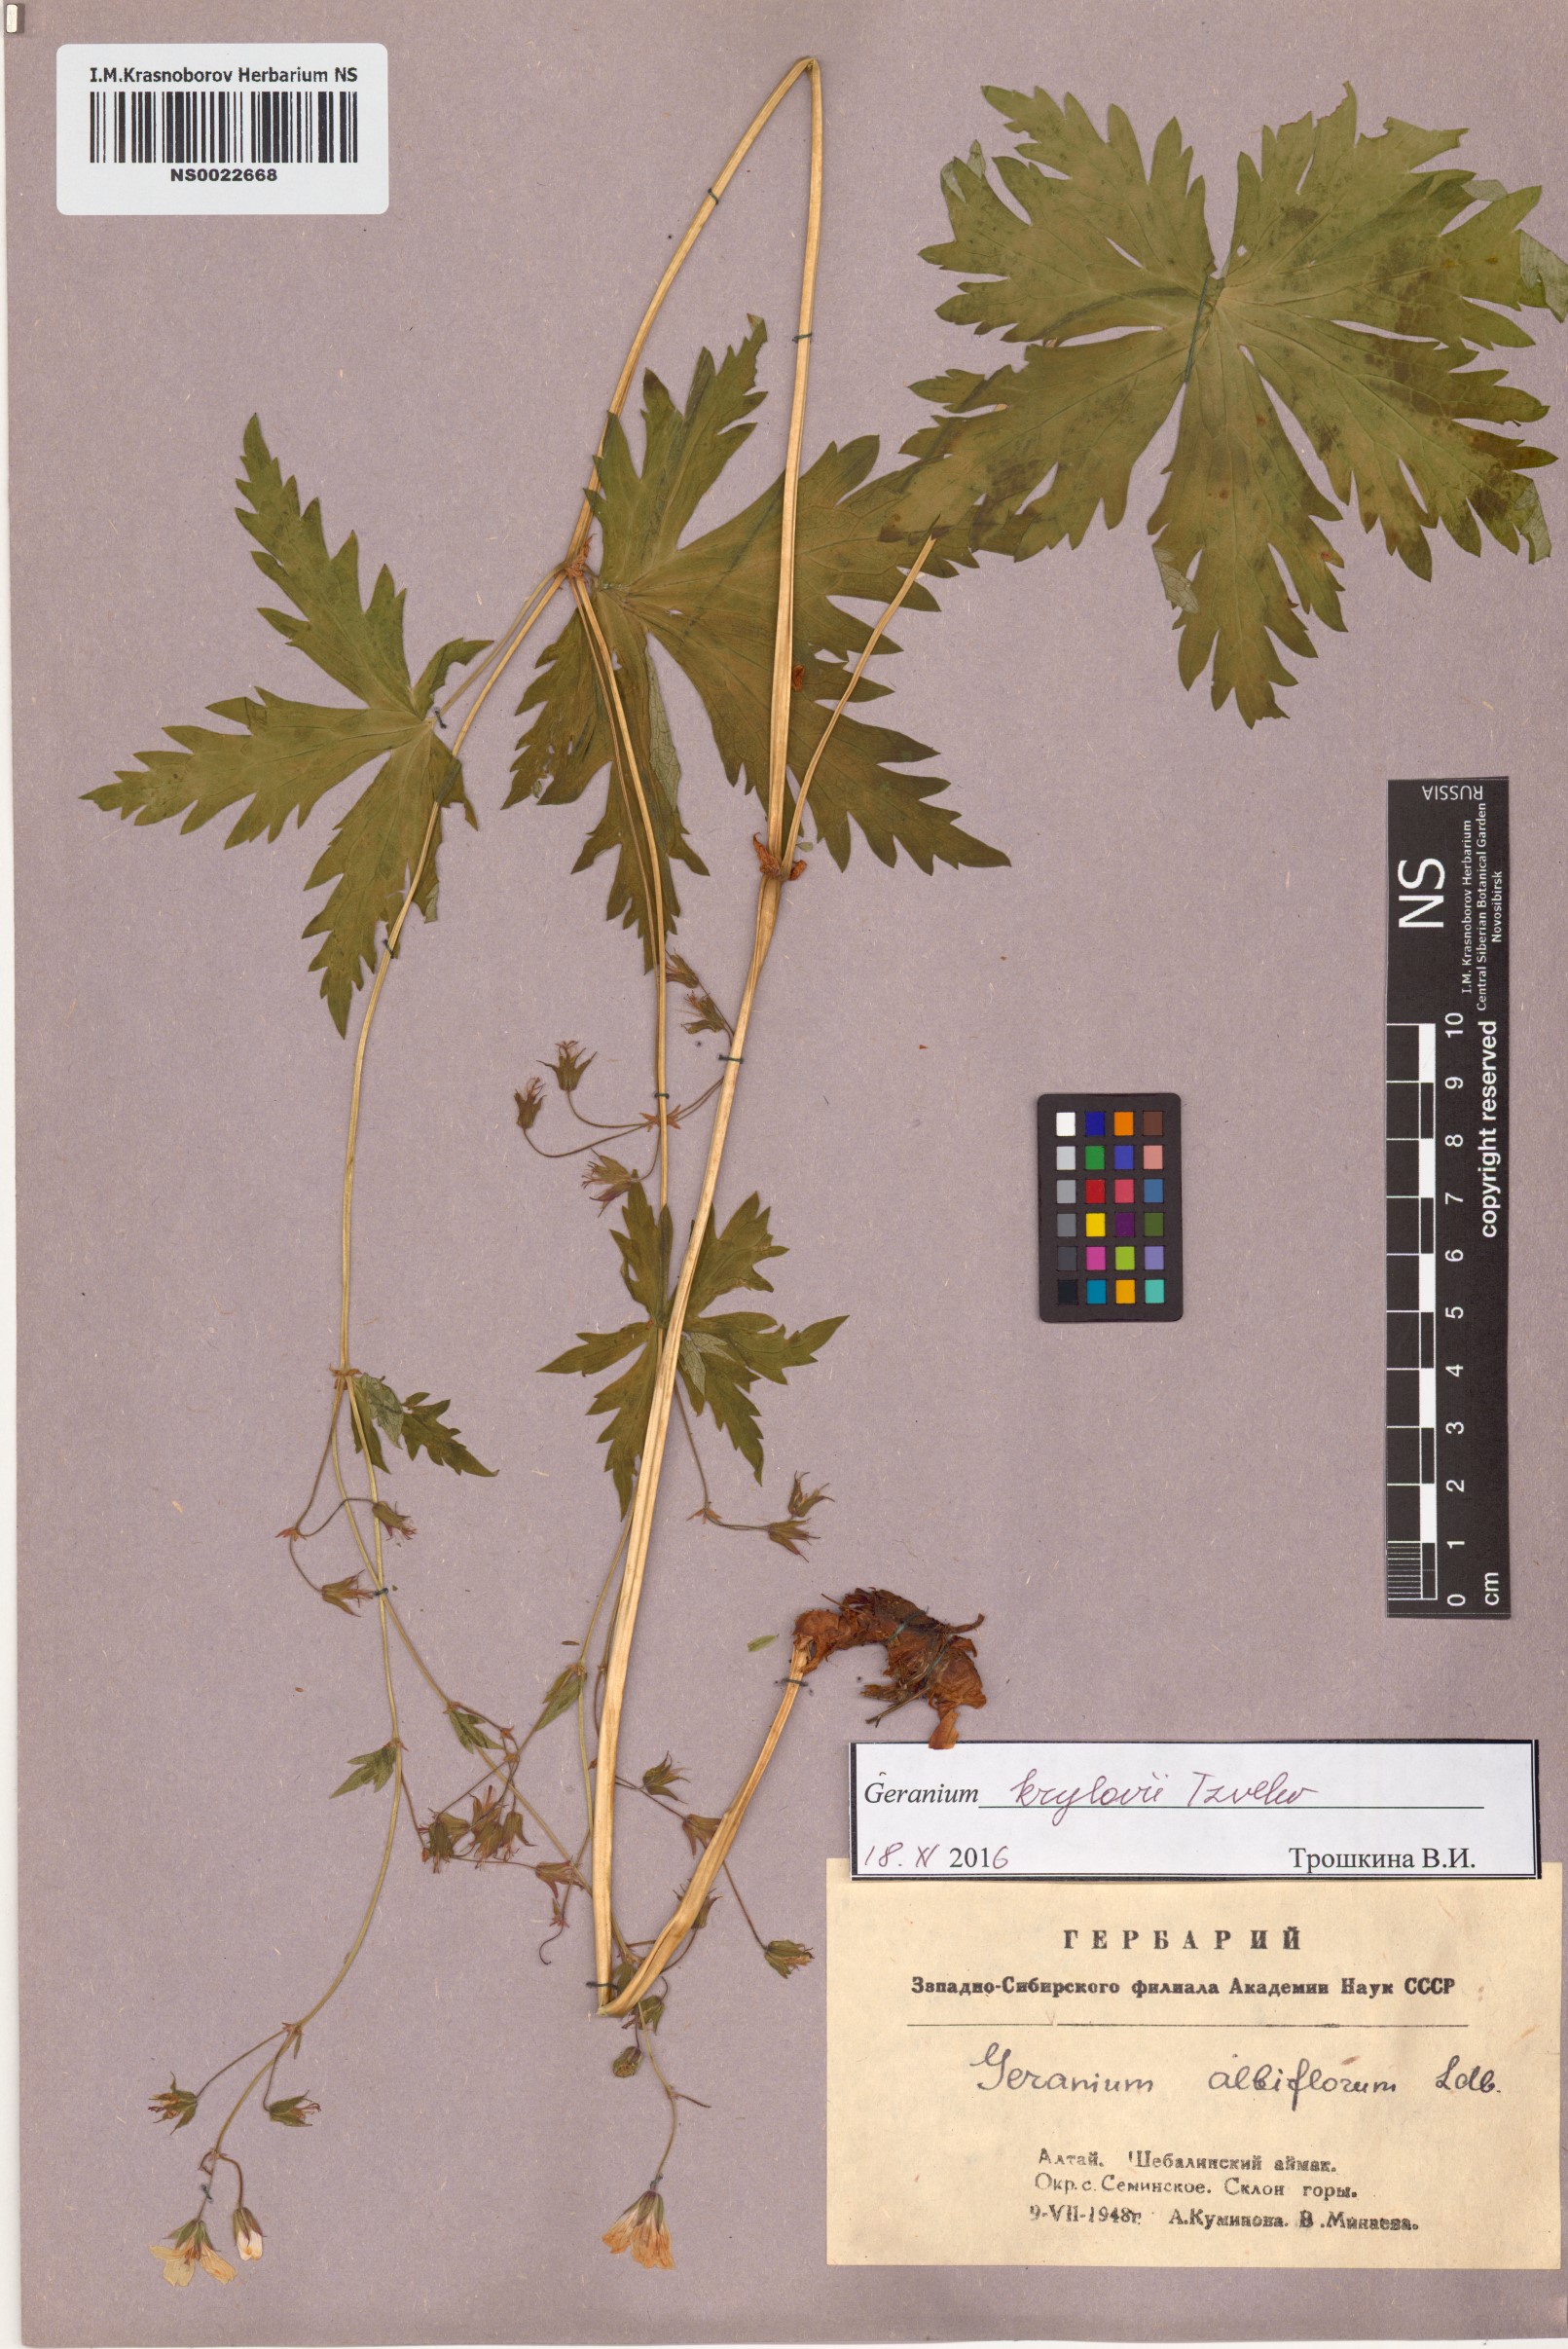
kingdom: Plantae
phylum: Tracheophyta
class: Magnoliopsida
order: Geraniales
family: Geraniaceae
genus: Geranium
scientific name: Geranium sylvaticum
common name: Wood crane's-bill
